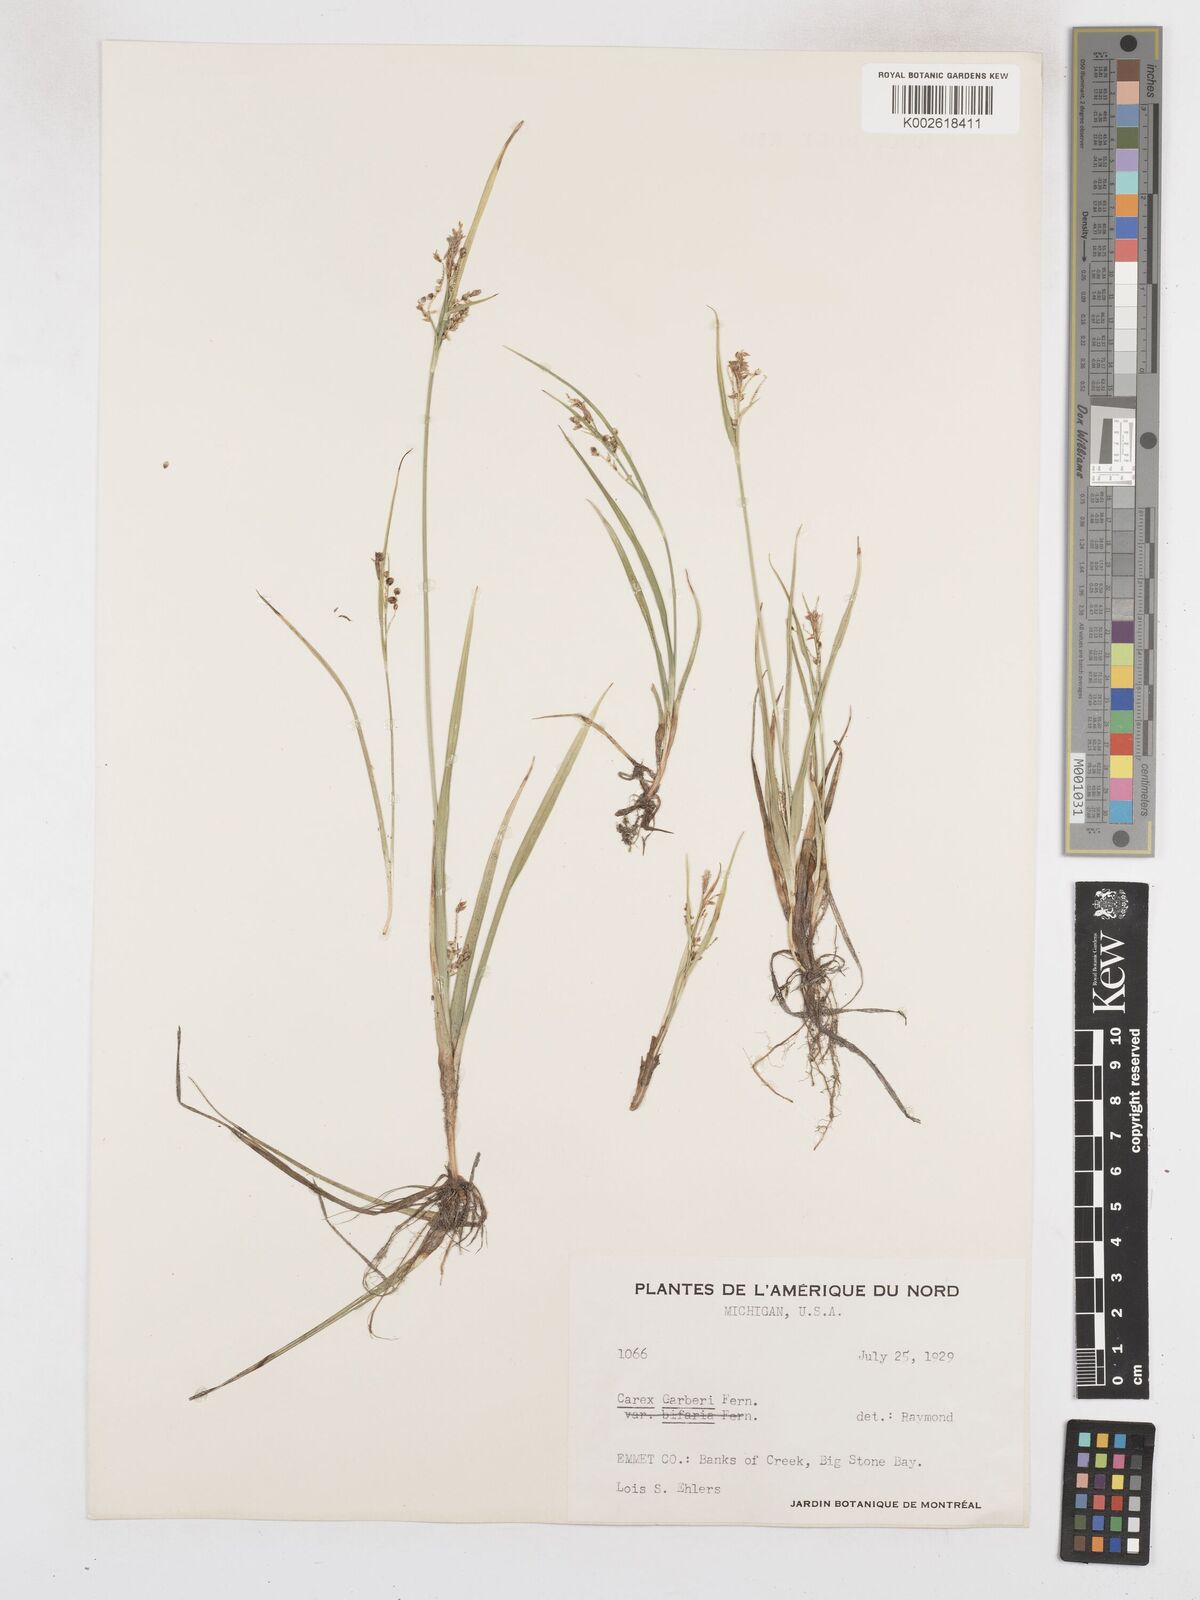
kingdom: Plantae
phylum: Tracheophyta
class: Liliopsida
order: Poales
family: Cyperaceae
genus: Carex
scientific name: Carex garberi
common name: Elk sedge
